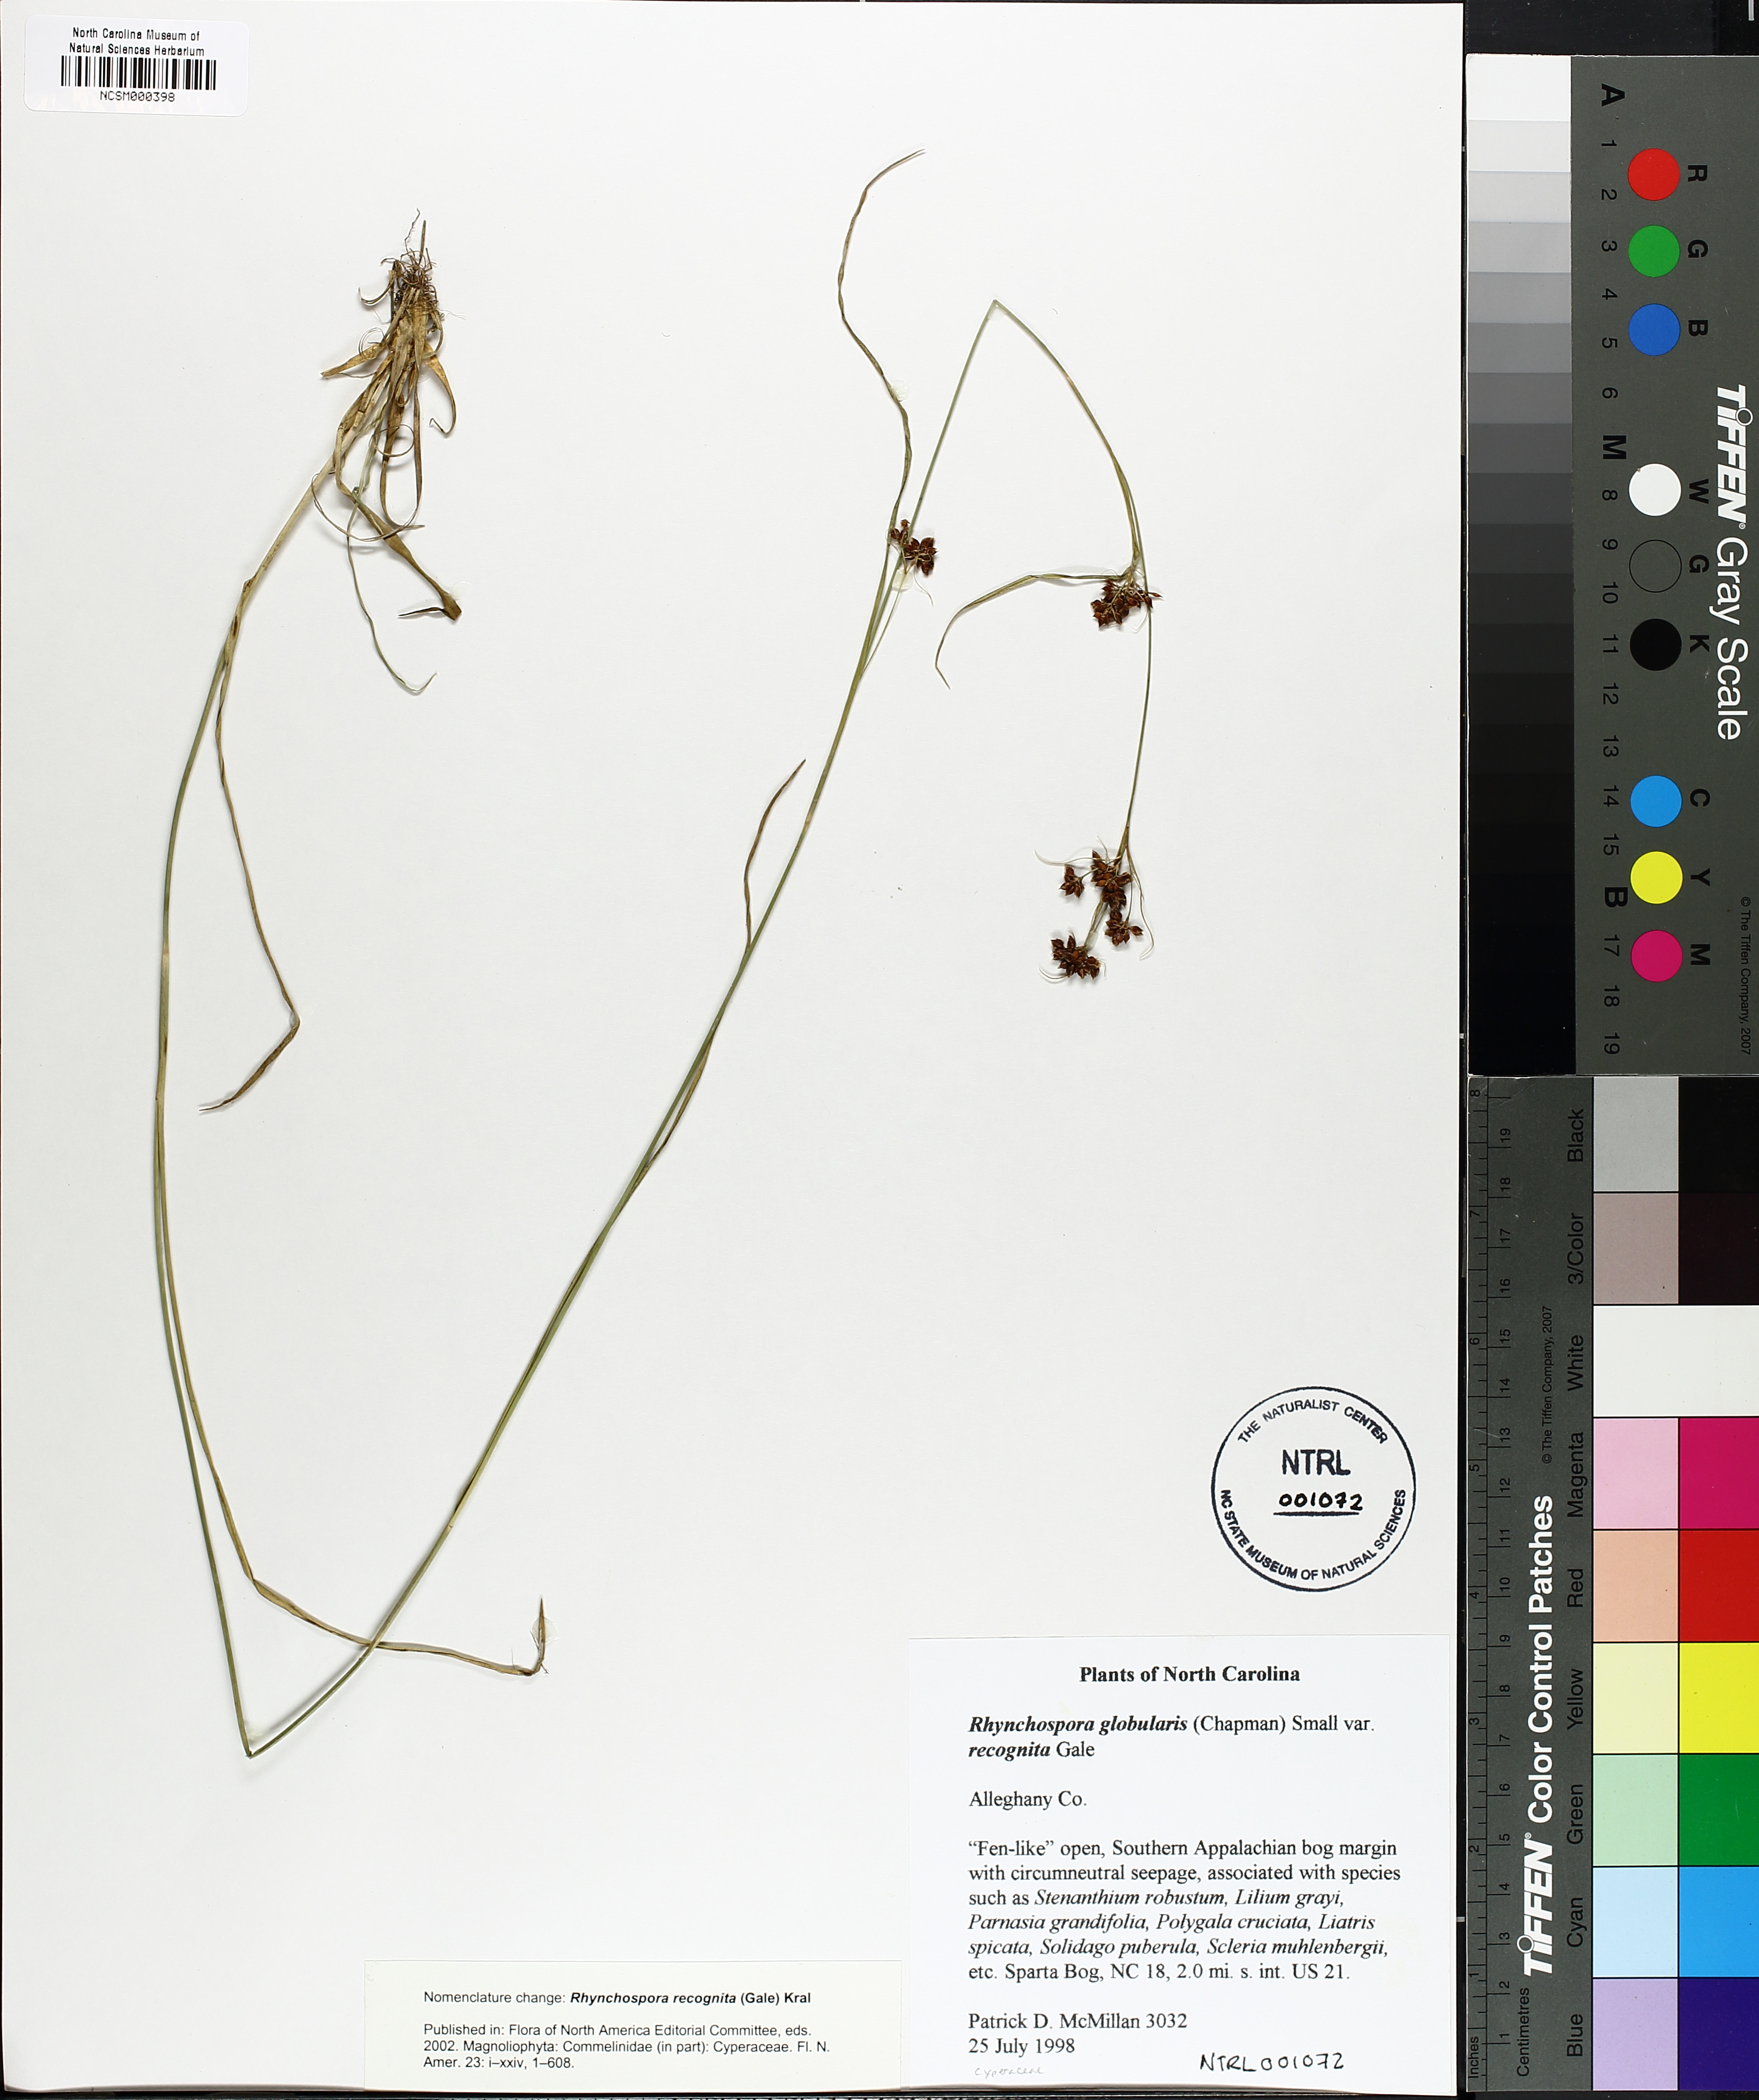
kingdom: Plantae
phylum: Tracheophyta
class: Liliopsida
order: Poales
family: Cyperaceae
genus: Rhynchospora
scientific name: Rhynchospora recognita
